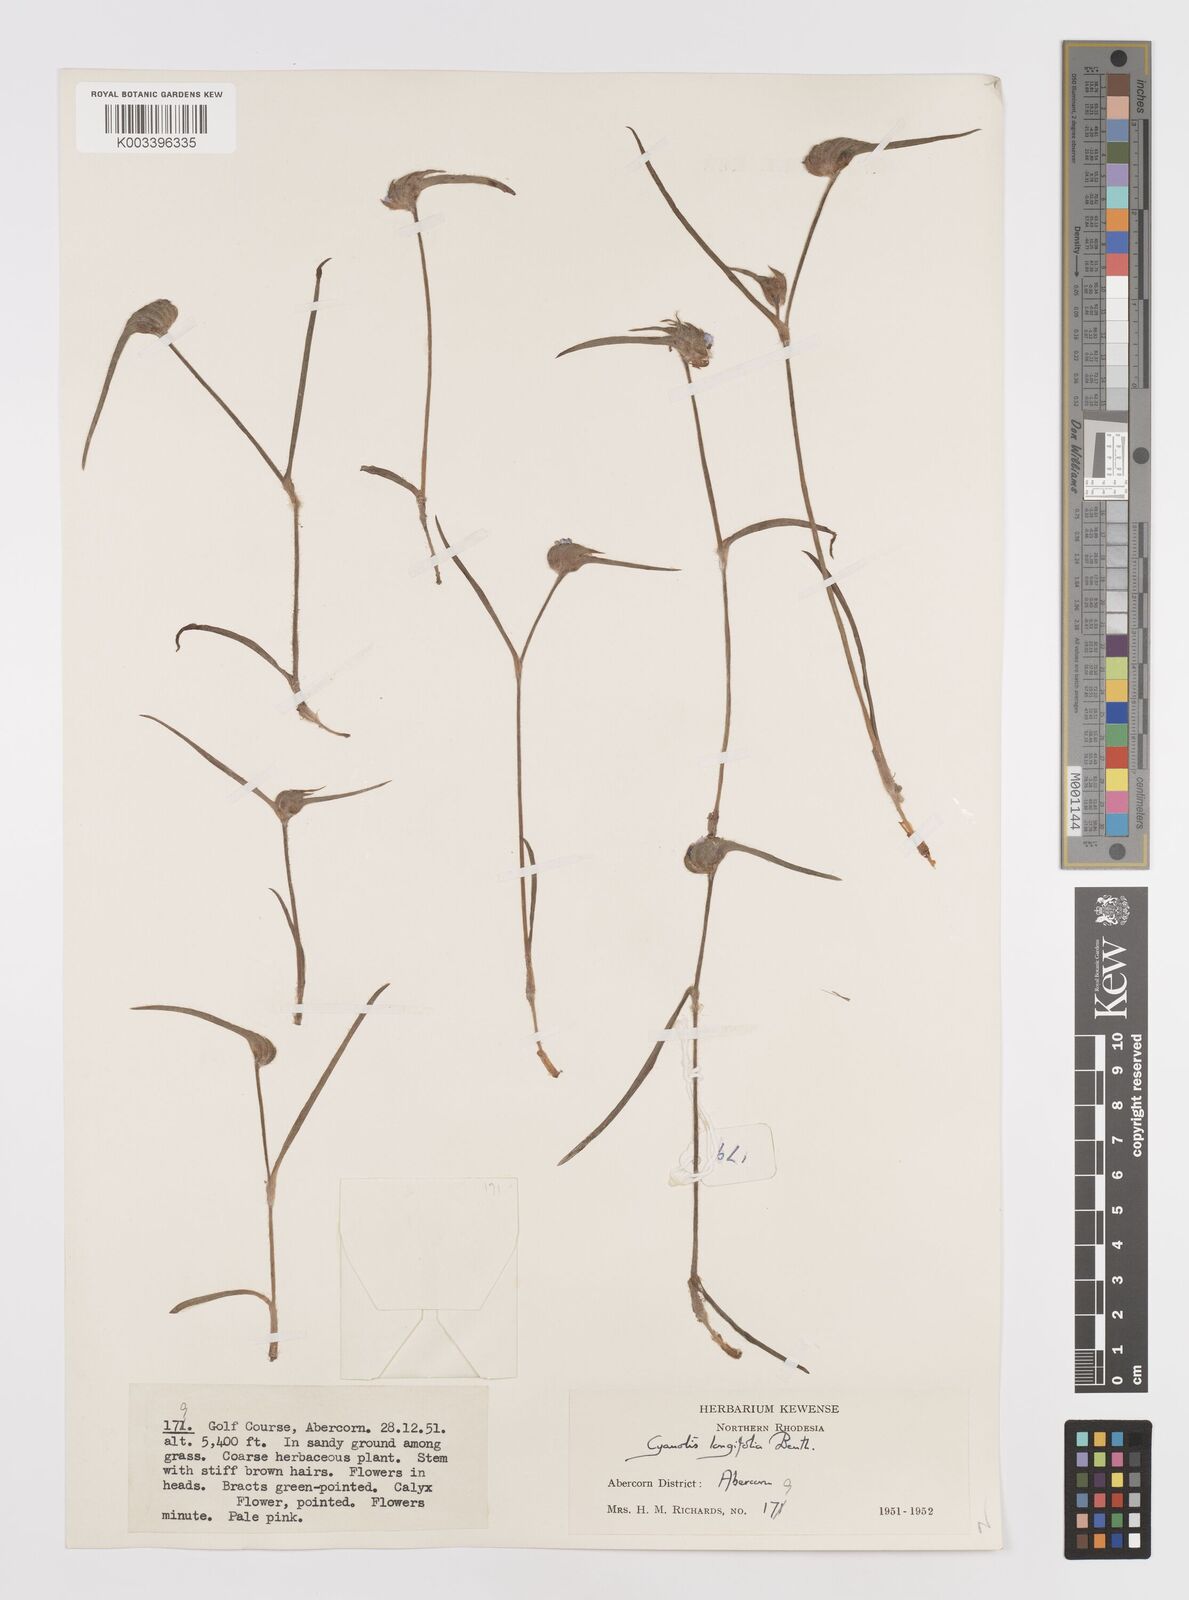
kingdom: Plantae
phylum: Tracheophyta
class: Liliopsida
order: Commelinales
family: Commelinaceae
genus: Cyanotis
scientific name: Cyanotis longifolia
